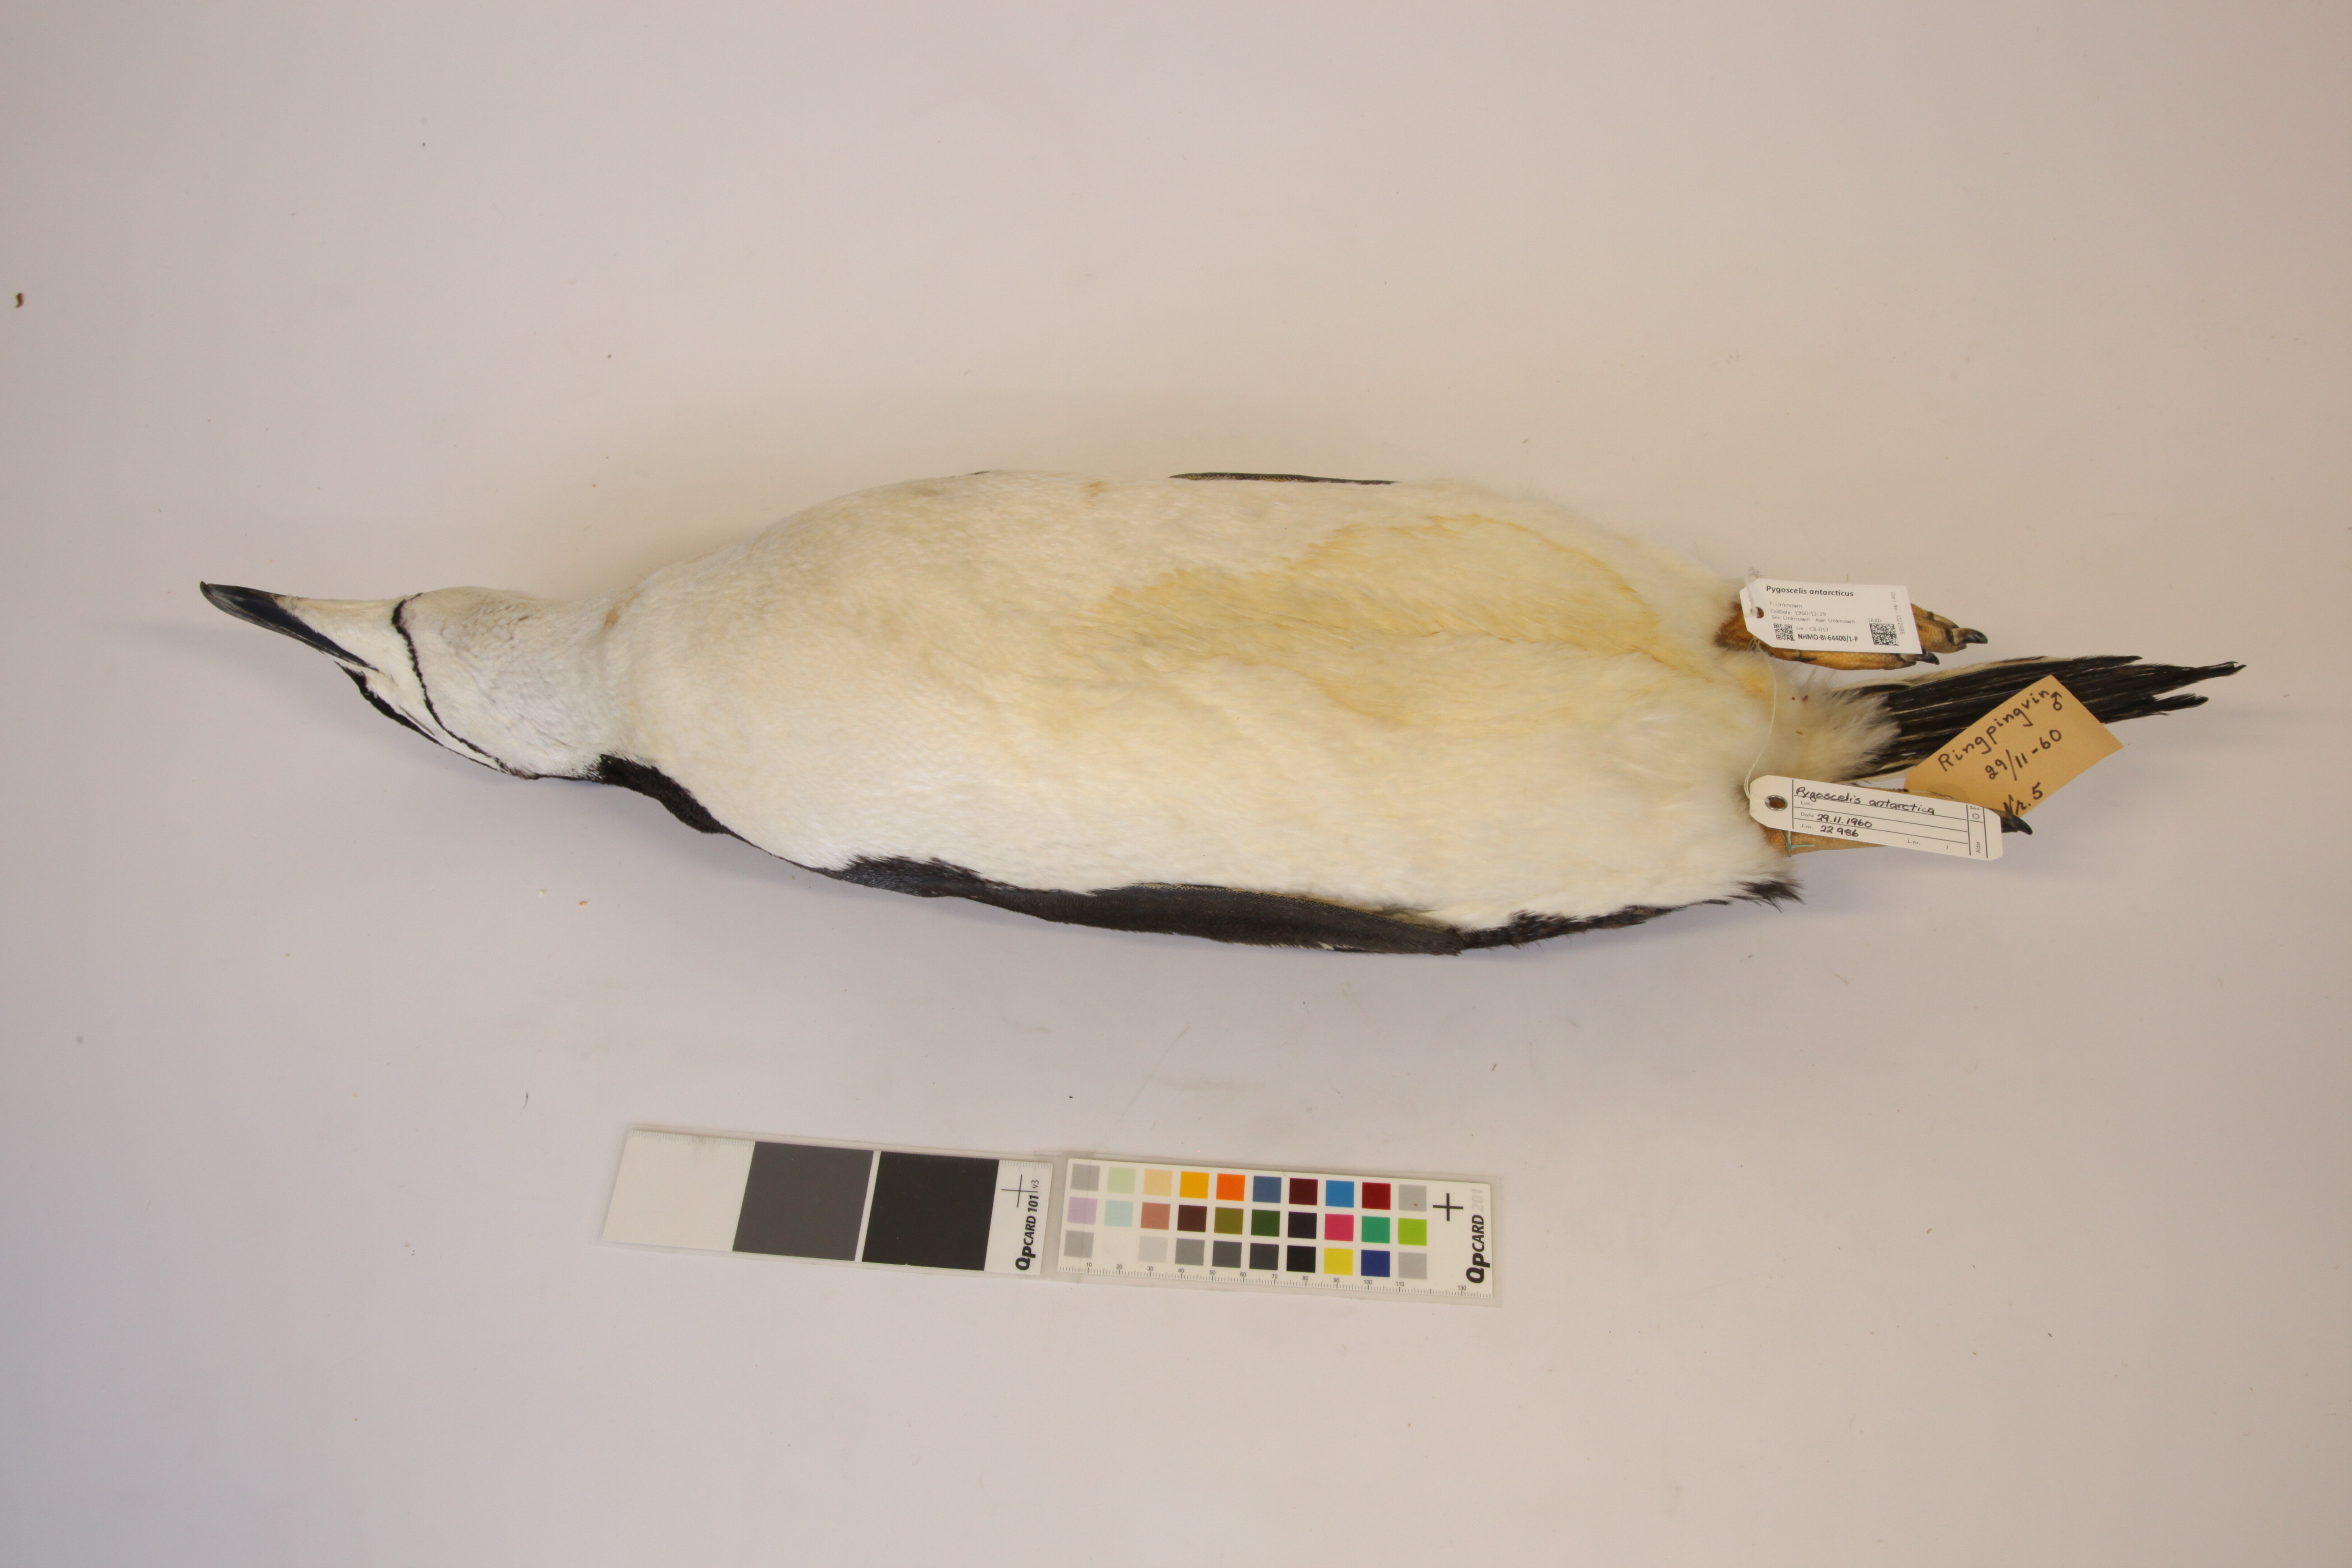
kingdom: Animalia
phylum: Chordata
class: Aves
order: Sphenisciformes
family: Spheniscidae
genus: Pygoscelis
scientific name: Pygoscelis antarcticus
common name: Chinstrap penguin
